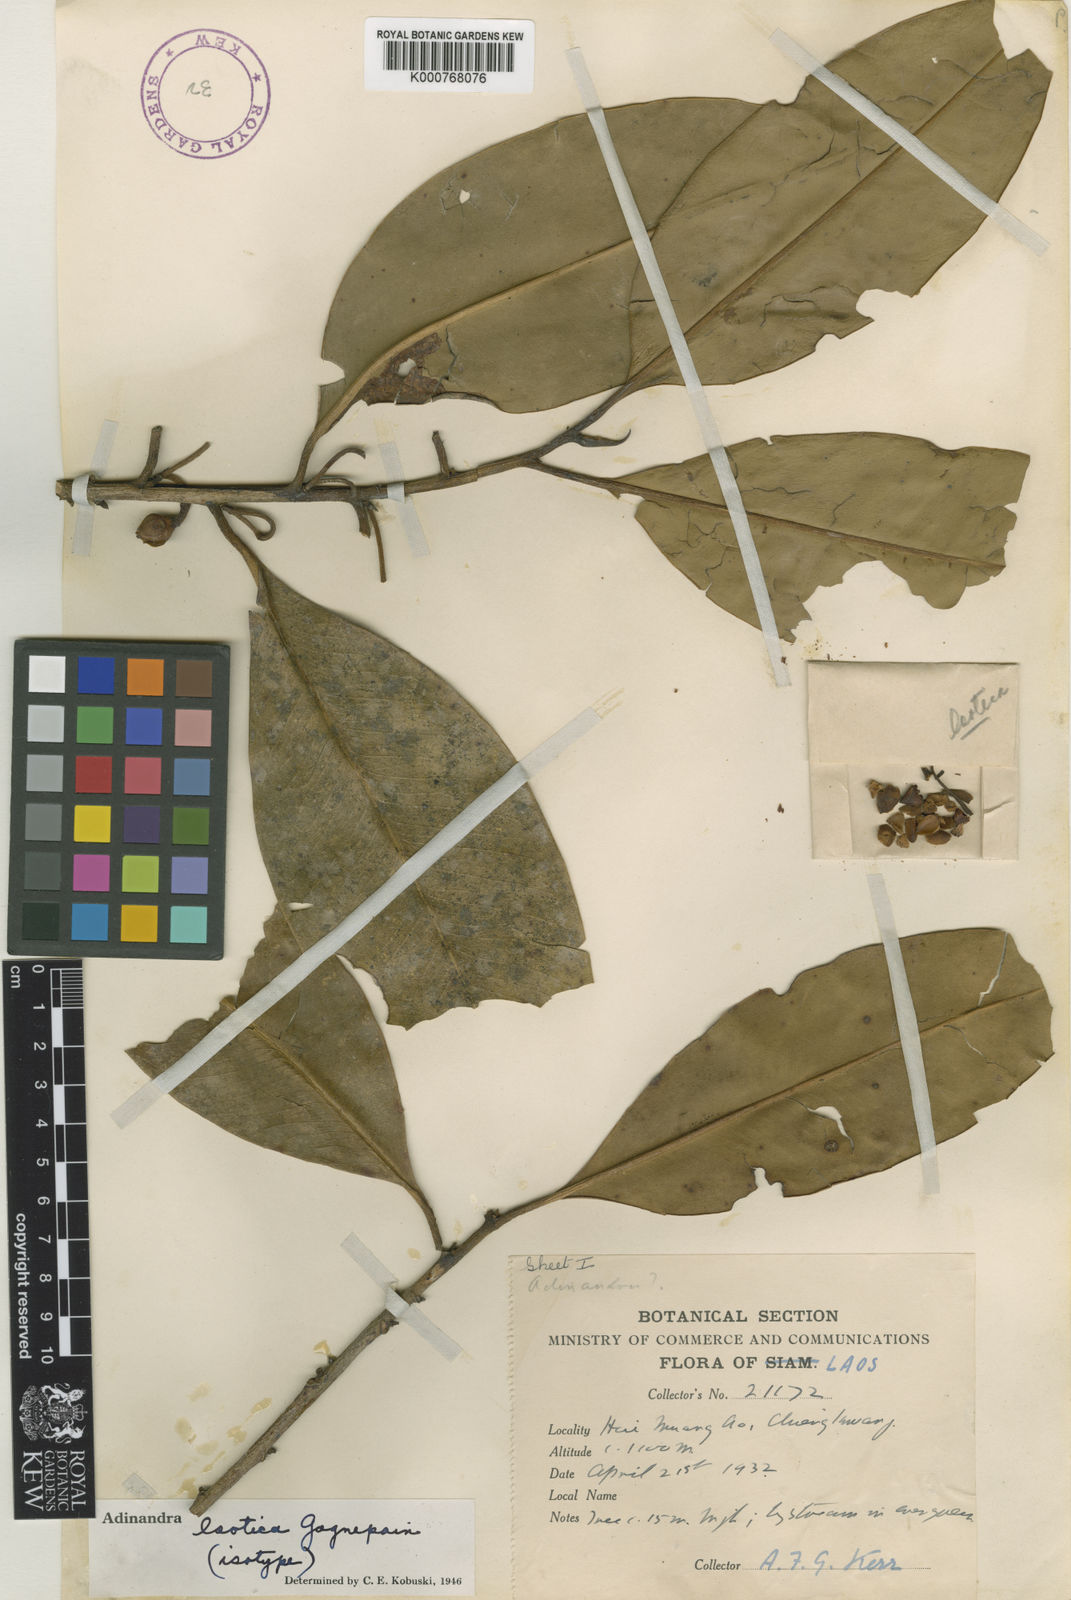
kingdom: Plantae
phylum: Tracheophyta
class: Magnoliopsida
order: Ericales
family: Pentaphylacaceae
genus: Adinandra
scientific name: Adinandra laotica
